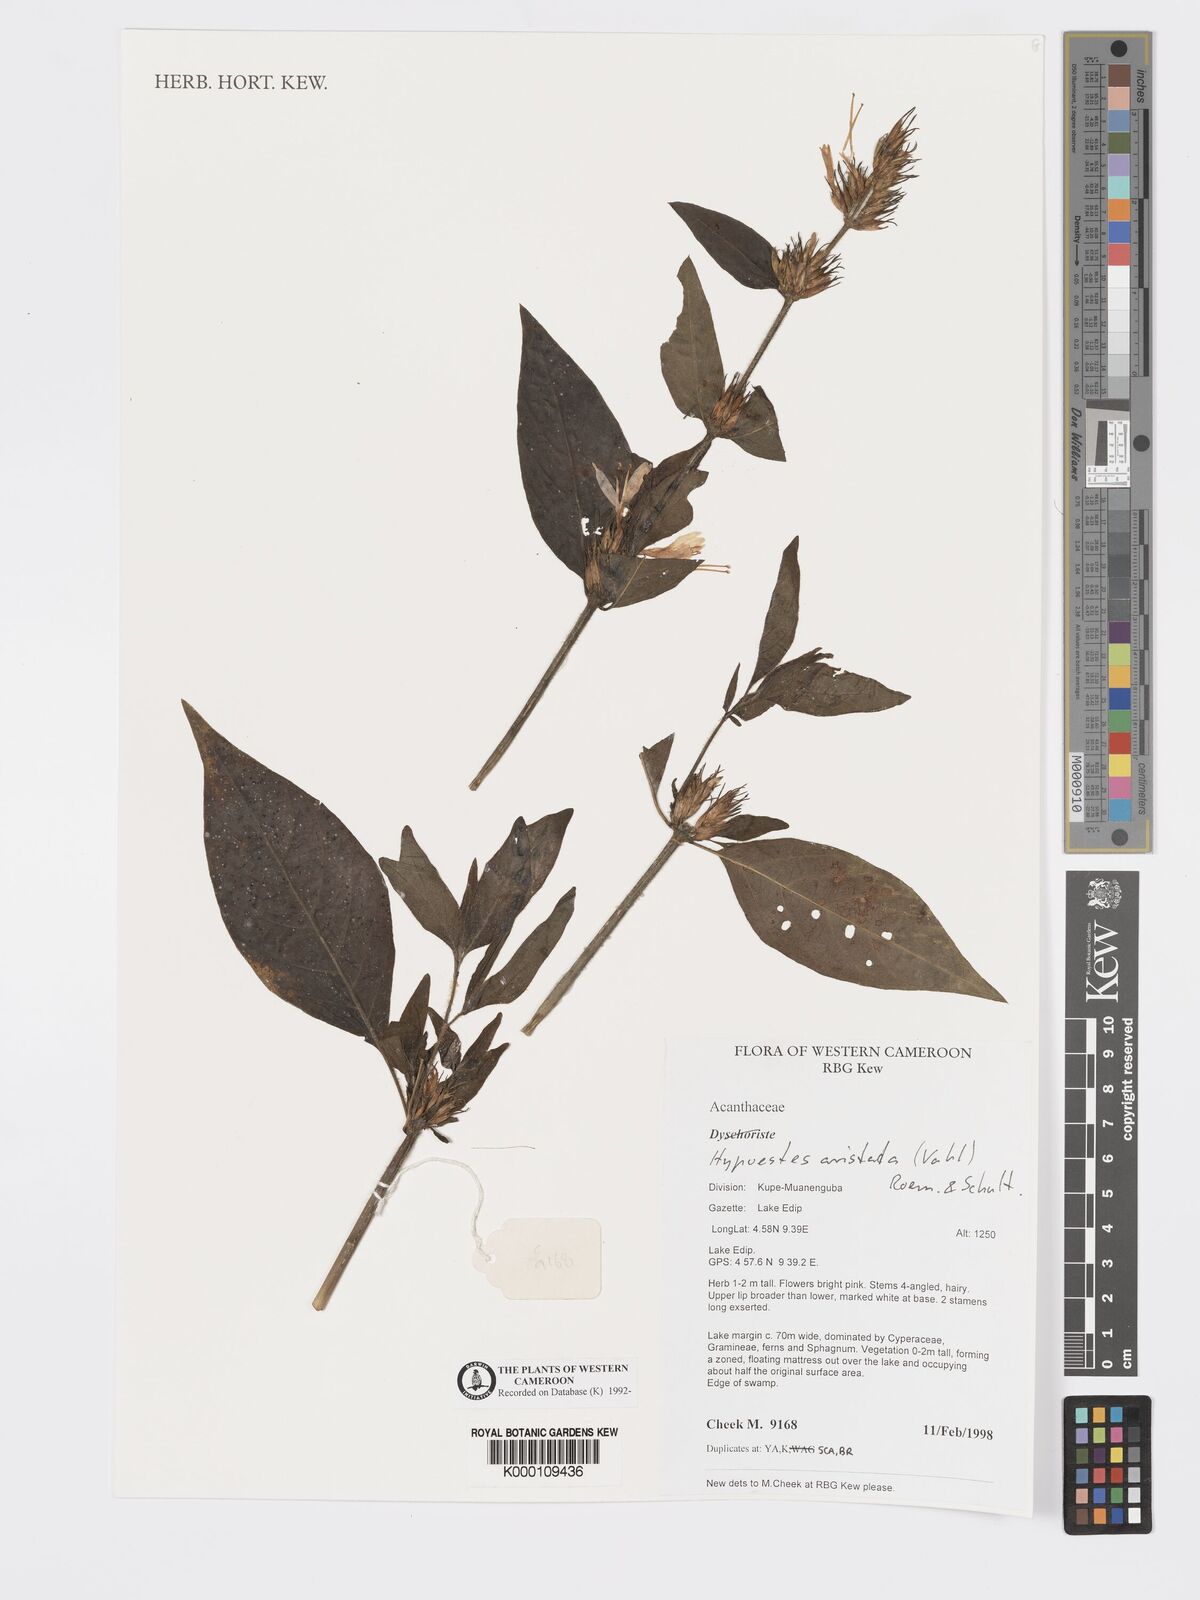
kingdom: Plantae
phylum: Tracheophyta
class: Magnoliopsida
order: Lamiales
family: Acanthaceae
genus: Hypoestes
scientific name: Hypoestes aristata
